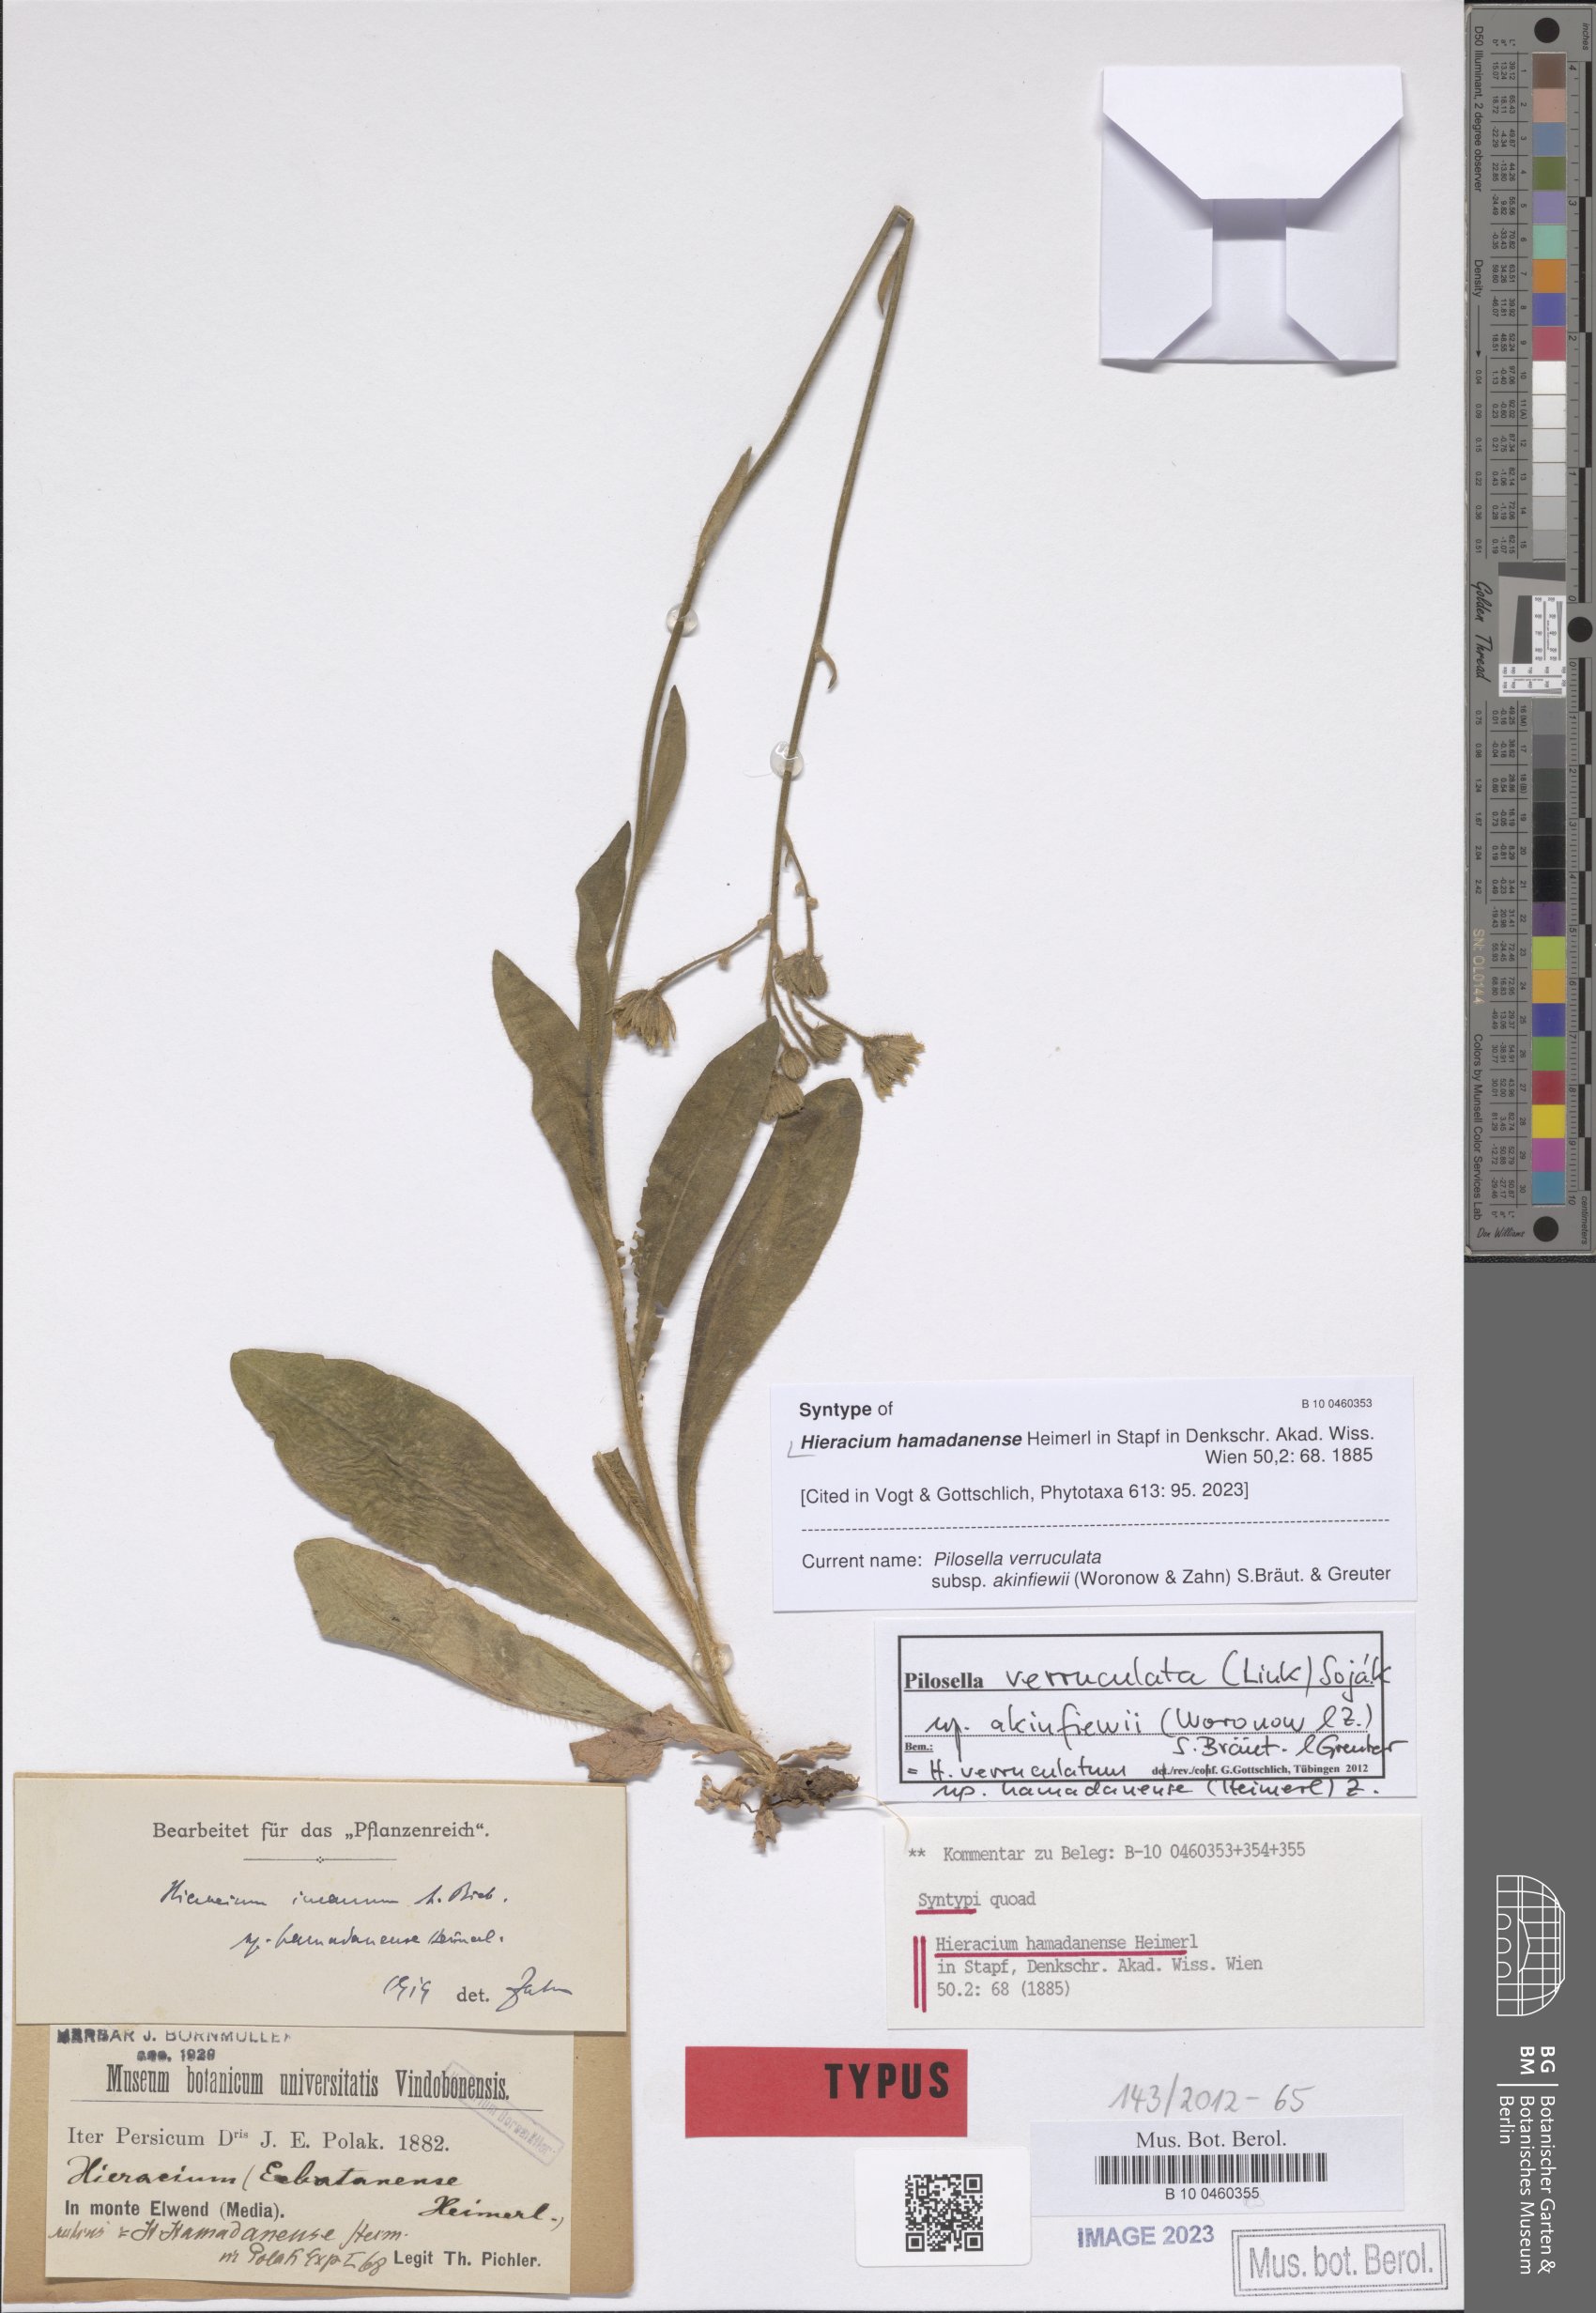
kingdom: Plantae
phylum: Tracheophyta
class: Magnoliopsida
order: Asterales
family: Asteraceae
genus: Pilosella
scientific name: Pilosella verruculata
